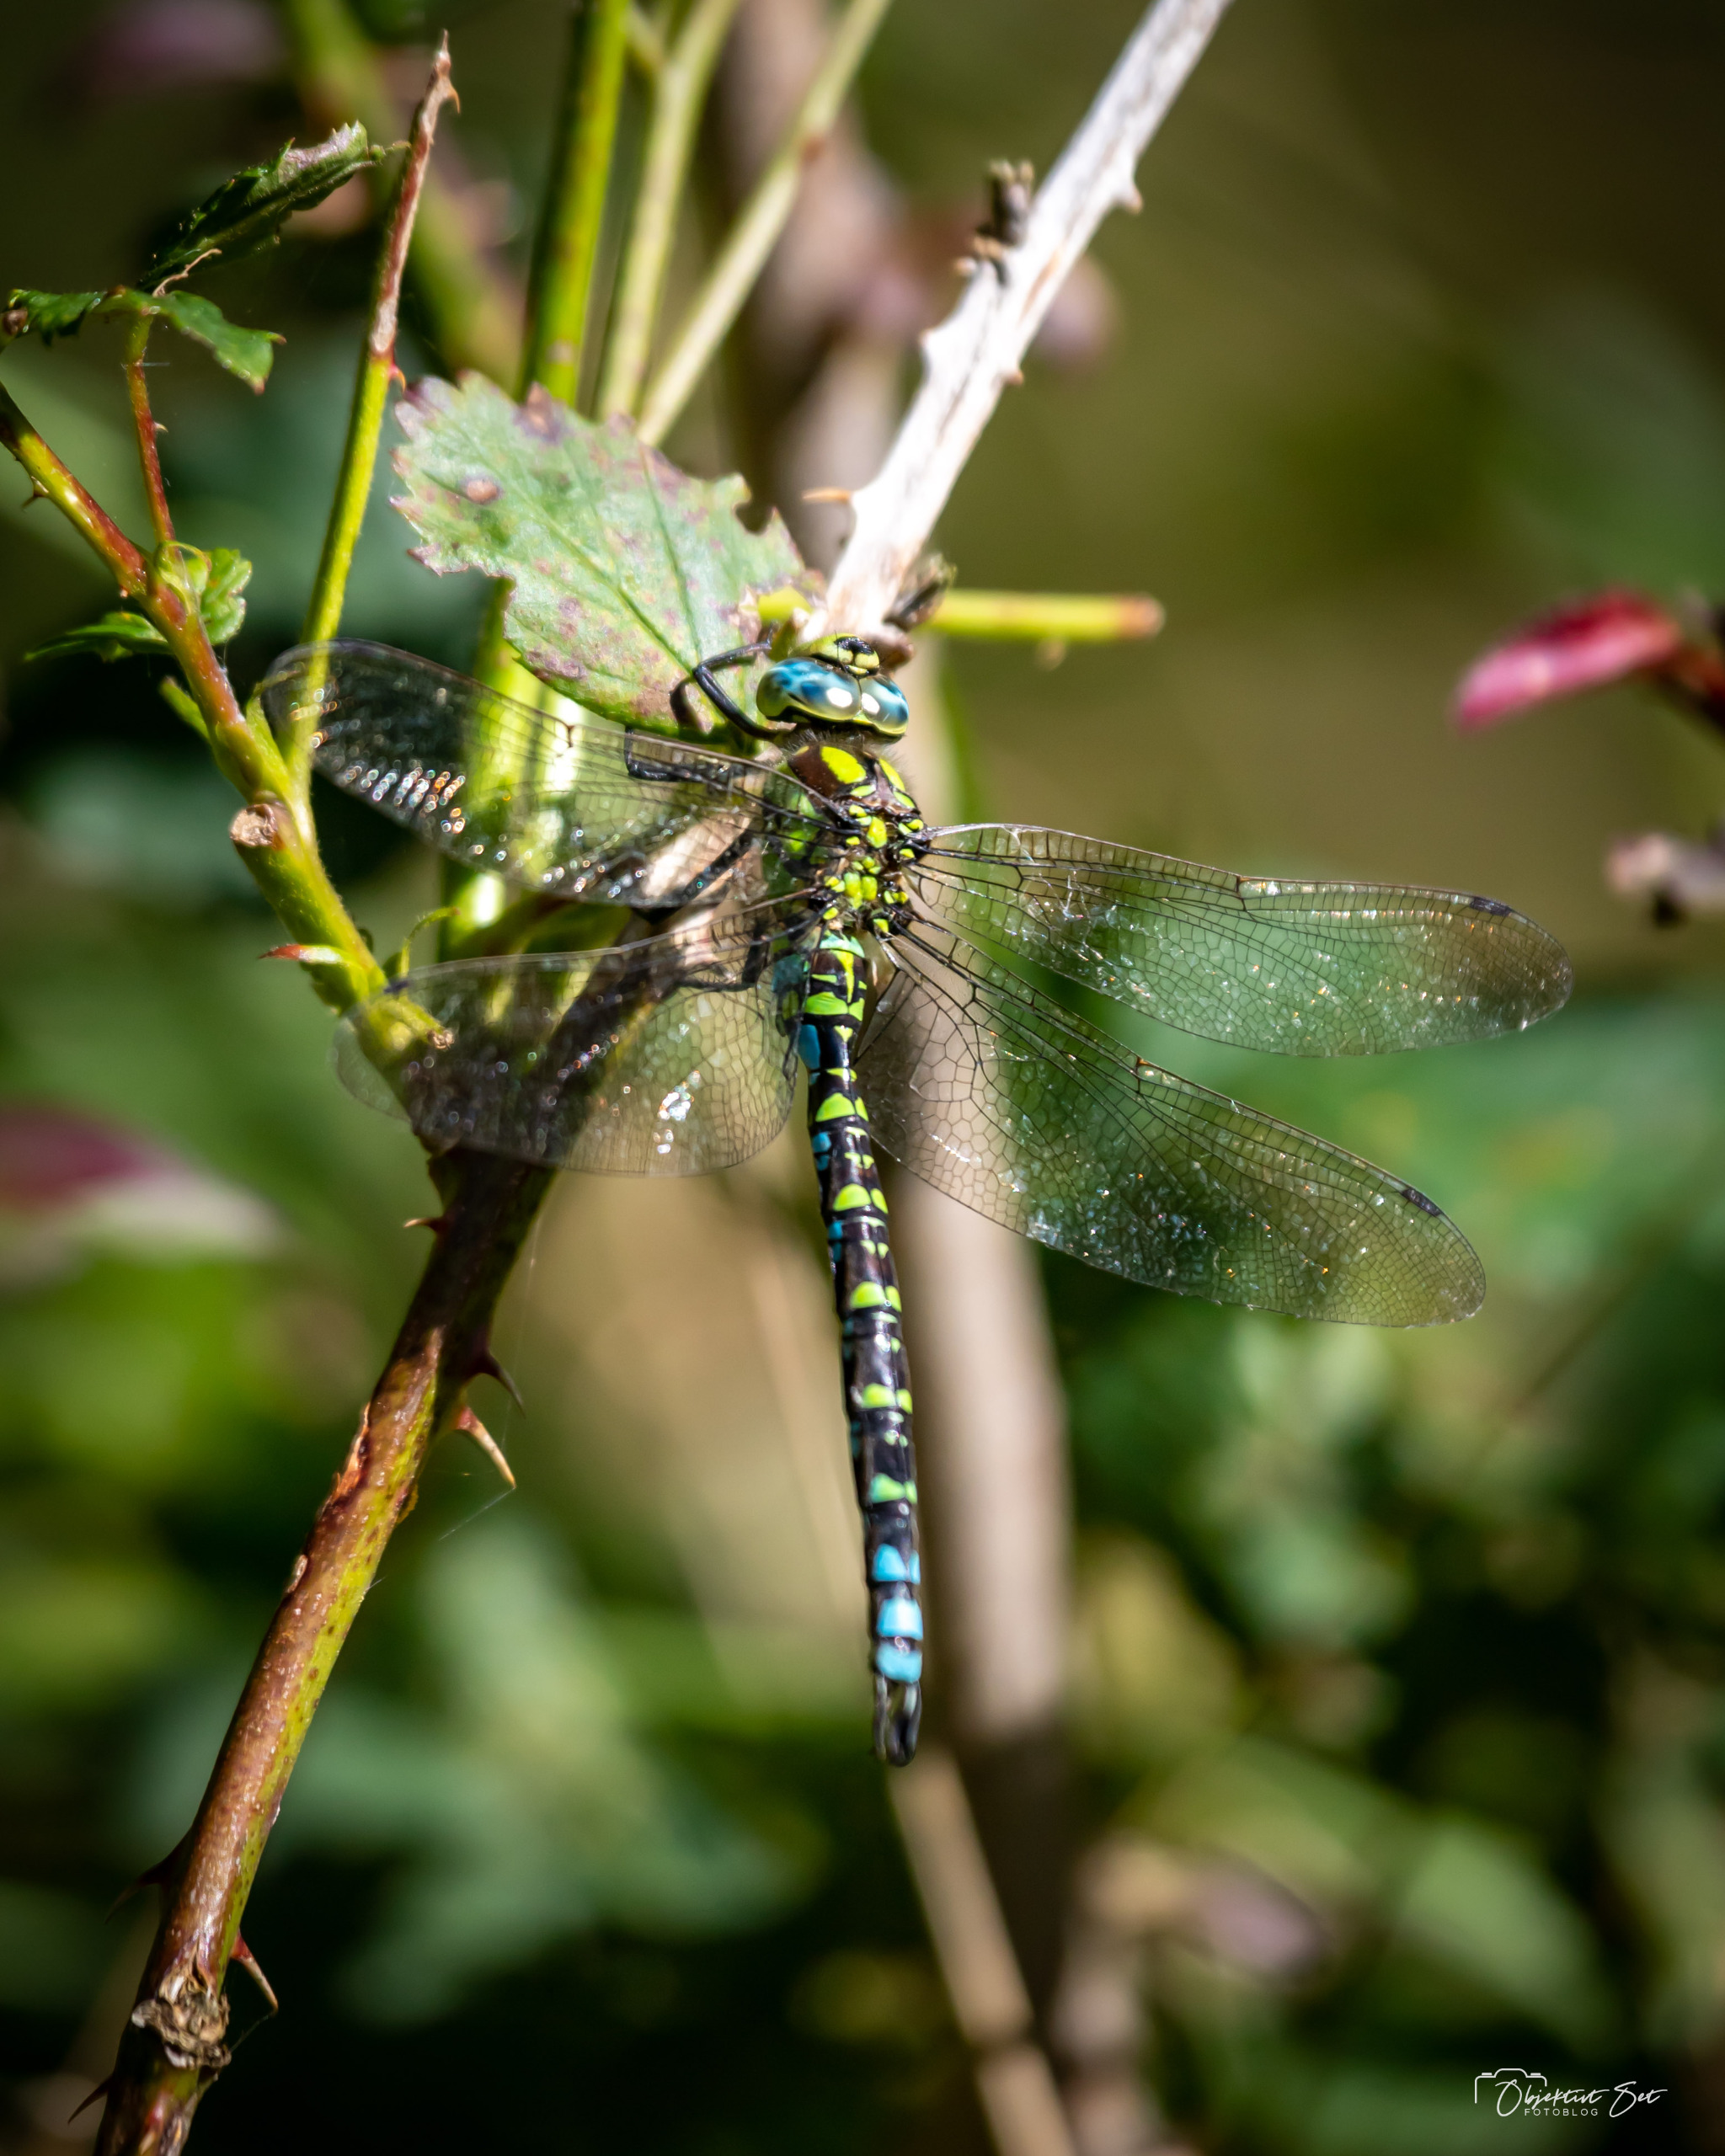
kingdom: Animalia
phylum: Arthropoda
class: Insecta
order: Odonata
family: Aeshnidae
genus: Aeshna
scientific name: Aeshna cyanea
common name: Blå mosaikguldsmed
